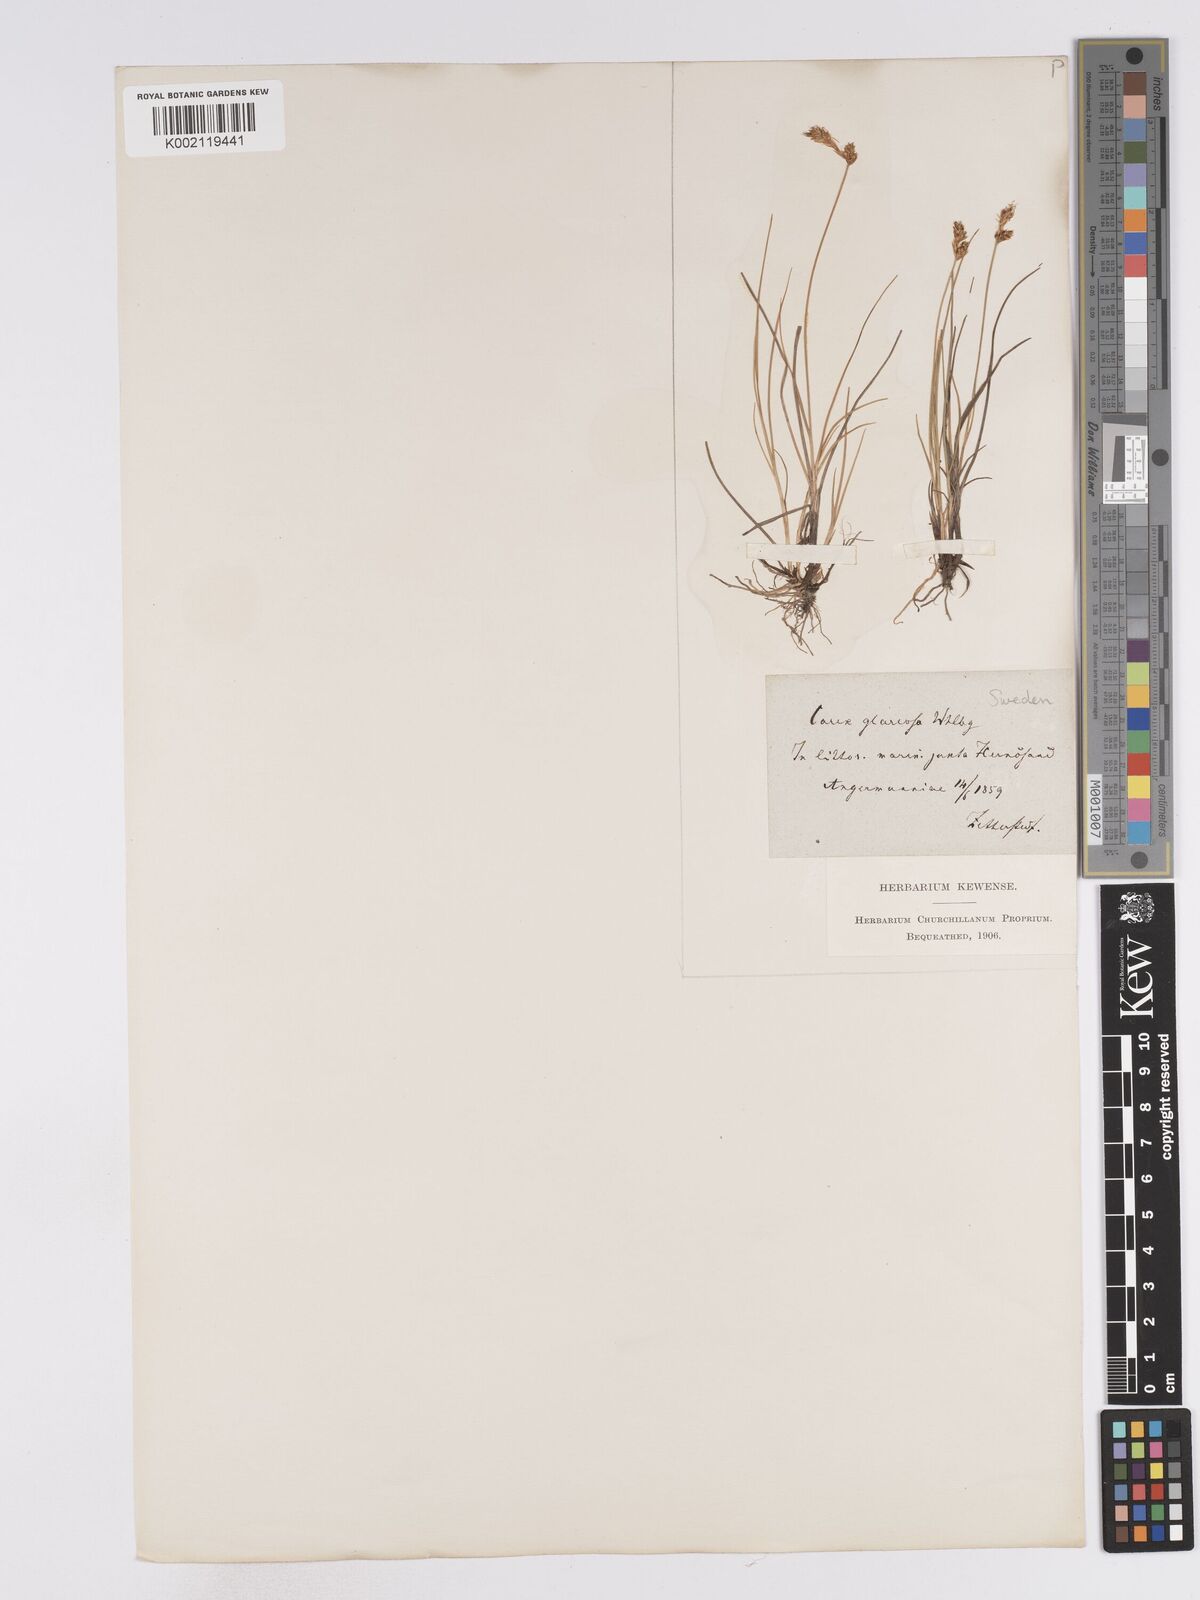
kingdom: Plantae
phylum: Tracheophyta
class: Liliopsida
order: Poales
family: Cyperaceae
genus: Carex
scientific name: Carex glareosa
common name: Clustered sedge
